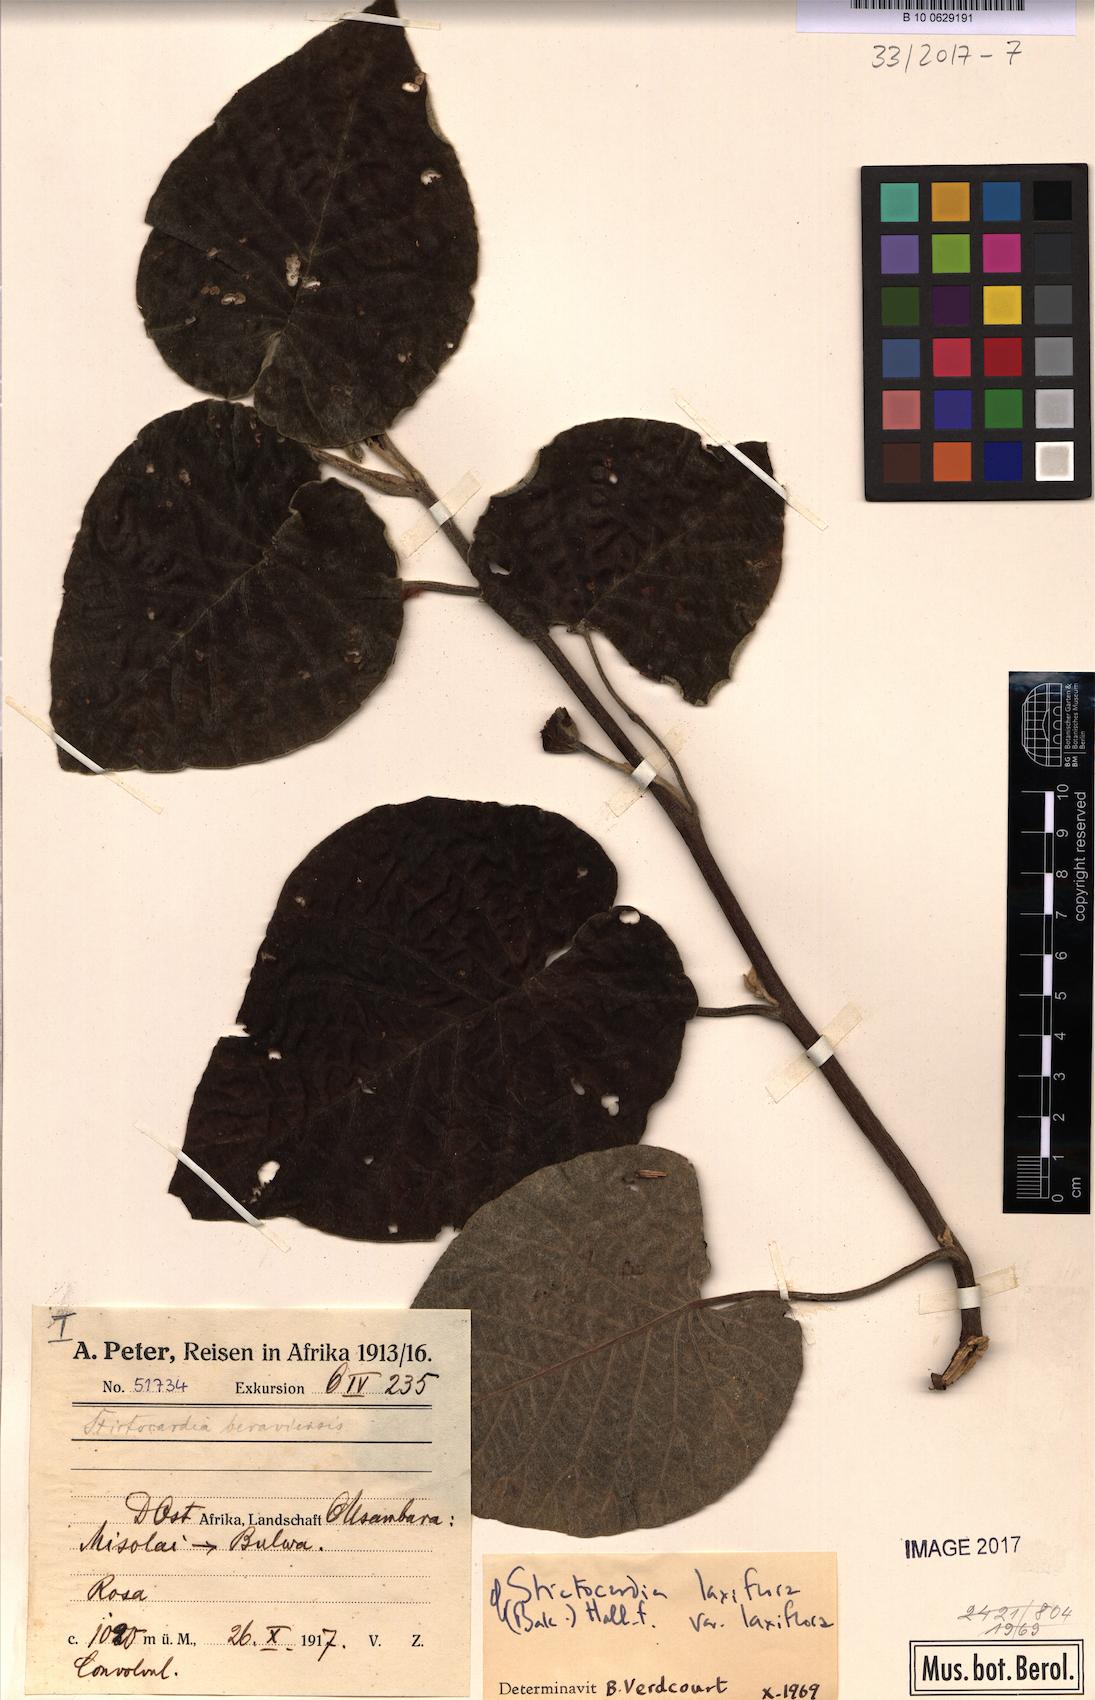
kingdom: Plantae
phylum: Tracheophyta
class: Magnoliopsida
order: Solanales
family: Convolvulaceae
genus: Stictocardia
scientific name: Stictocardia laxiflora
